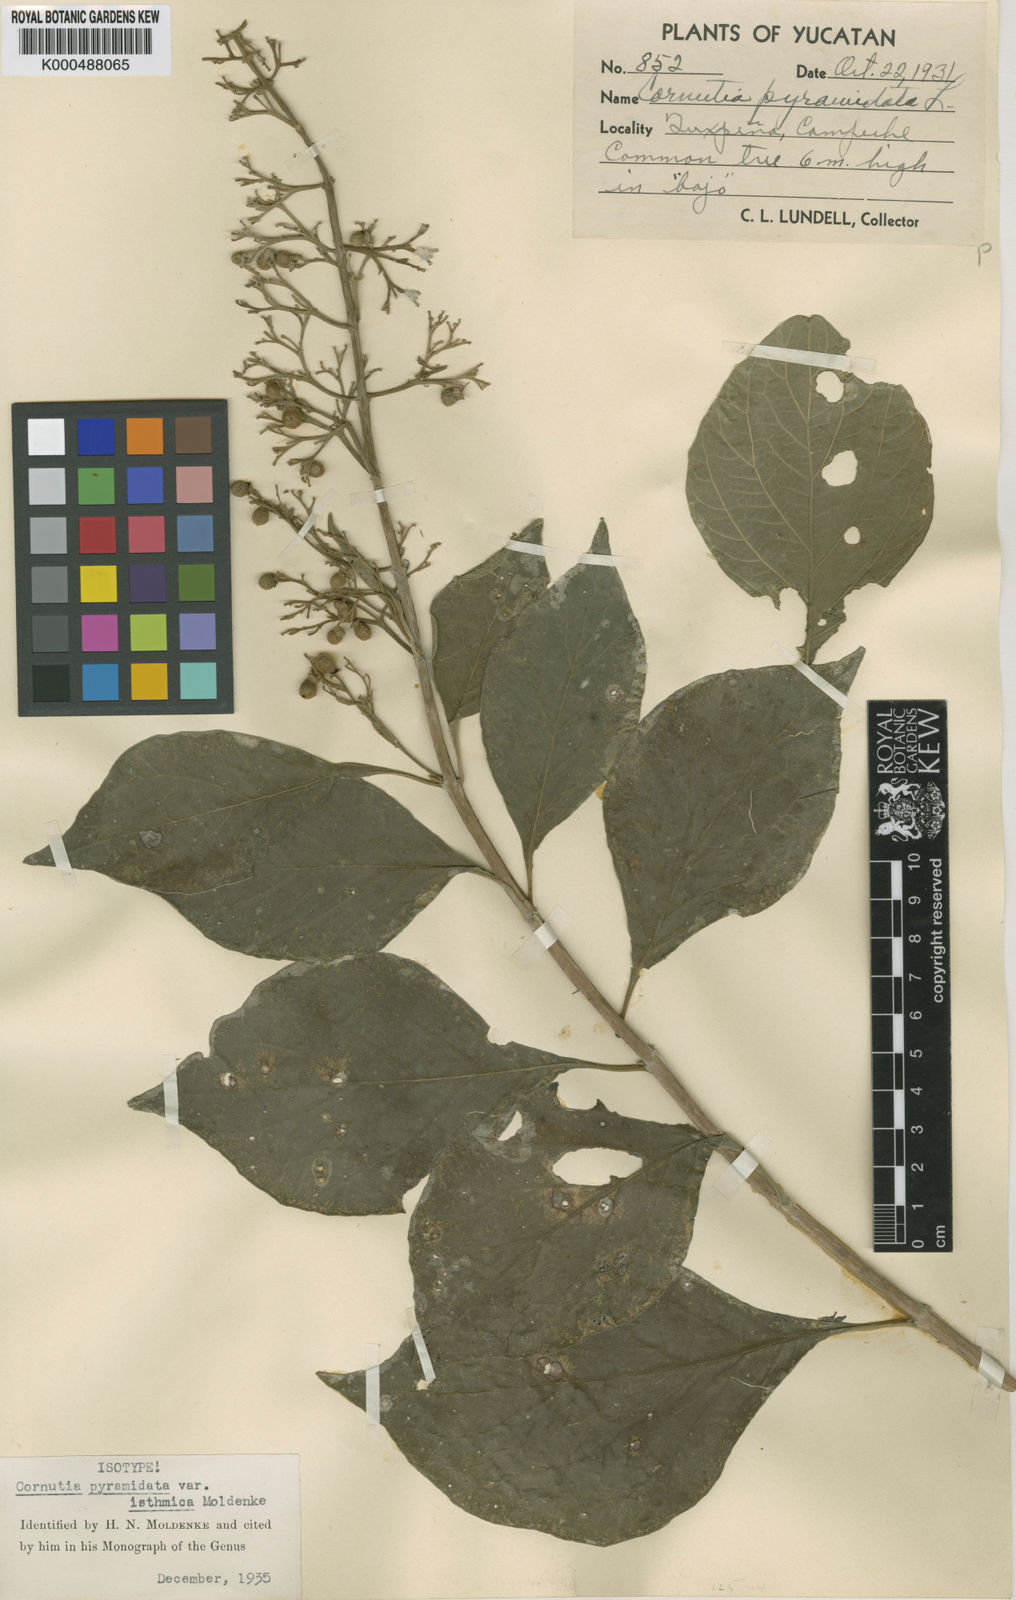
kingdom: Plantae
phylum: Tracheophyta
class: Magnoliopsida
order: Lamiales
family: Lamiaceae
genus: Cornutia
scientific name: Cornutia pyramidata
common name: Azulejo
